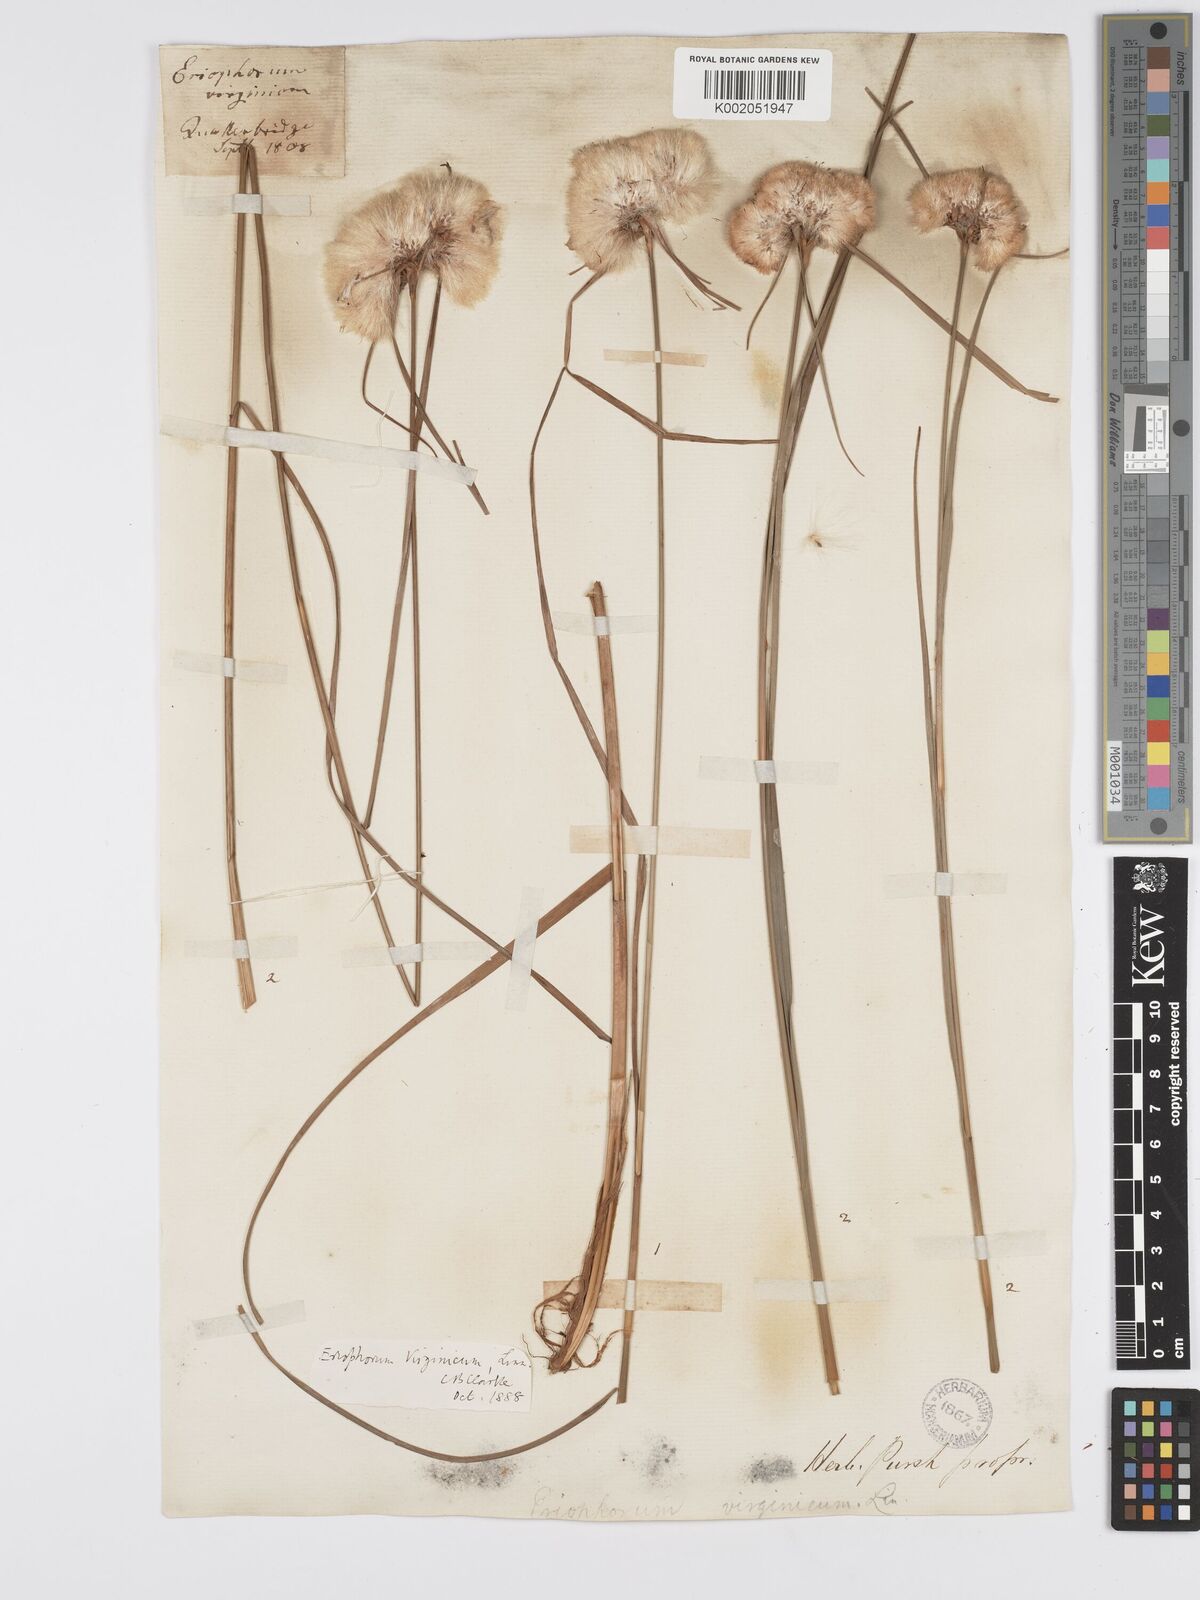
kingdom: Plantae
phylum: Tracheophyta
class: Liliopsida
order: Poales
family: Cyperaceae
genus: Eriophorum
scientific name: Eriophorum virginicum
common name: Tawny cottongrass
